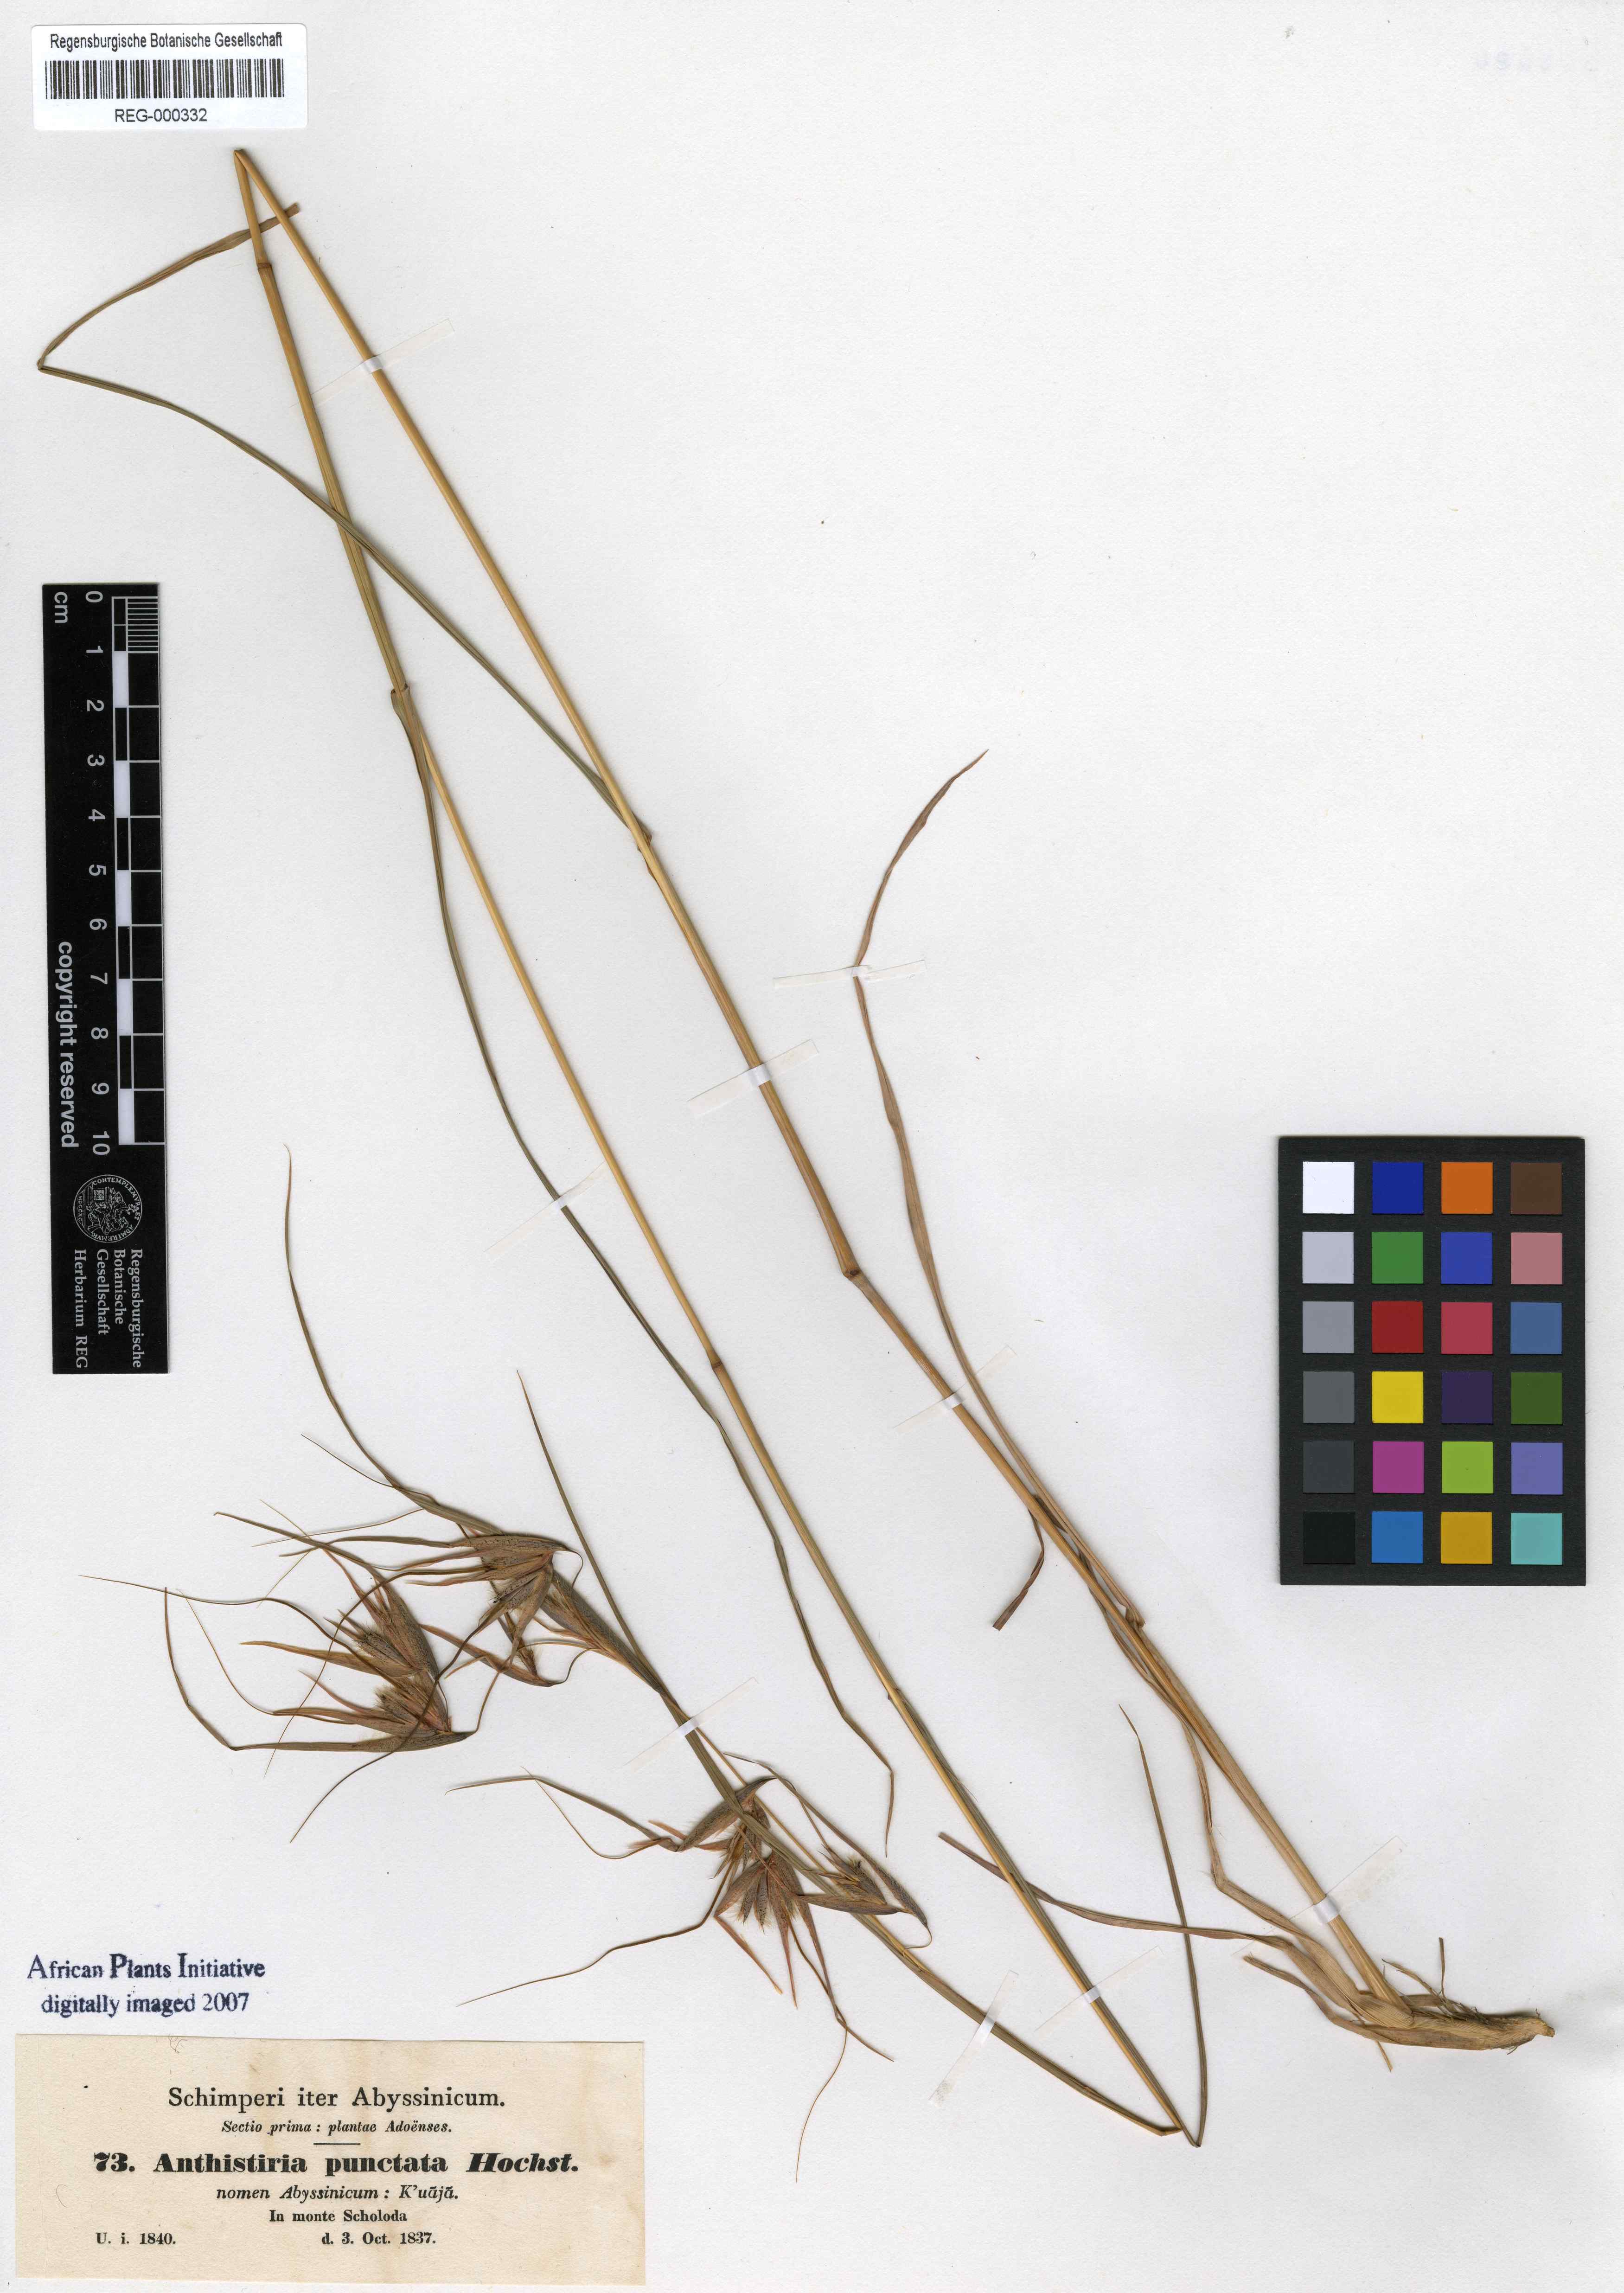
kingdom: Plantae
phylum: Tracheophyta
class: Liliopsida
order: Poales
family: Poaceae
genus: Themeda
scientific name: Themeda triandra
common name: Kangaroo grass
